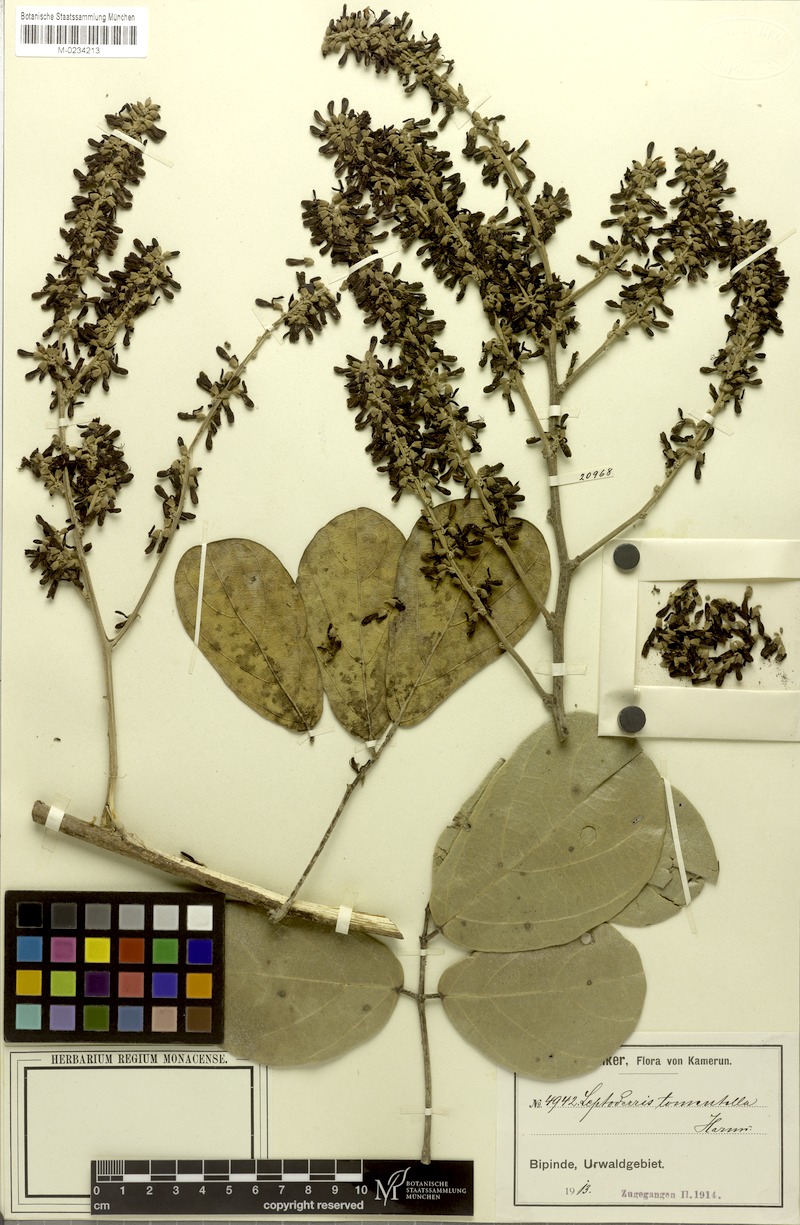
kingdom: Plantae
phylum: Tracheophyta
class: Magnoliopsida
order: Fabales
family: Fabaceae
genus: Leptoderris
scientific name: Leptoderris tomentella
